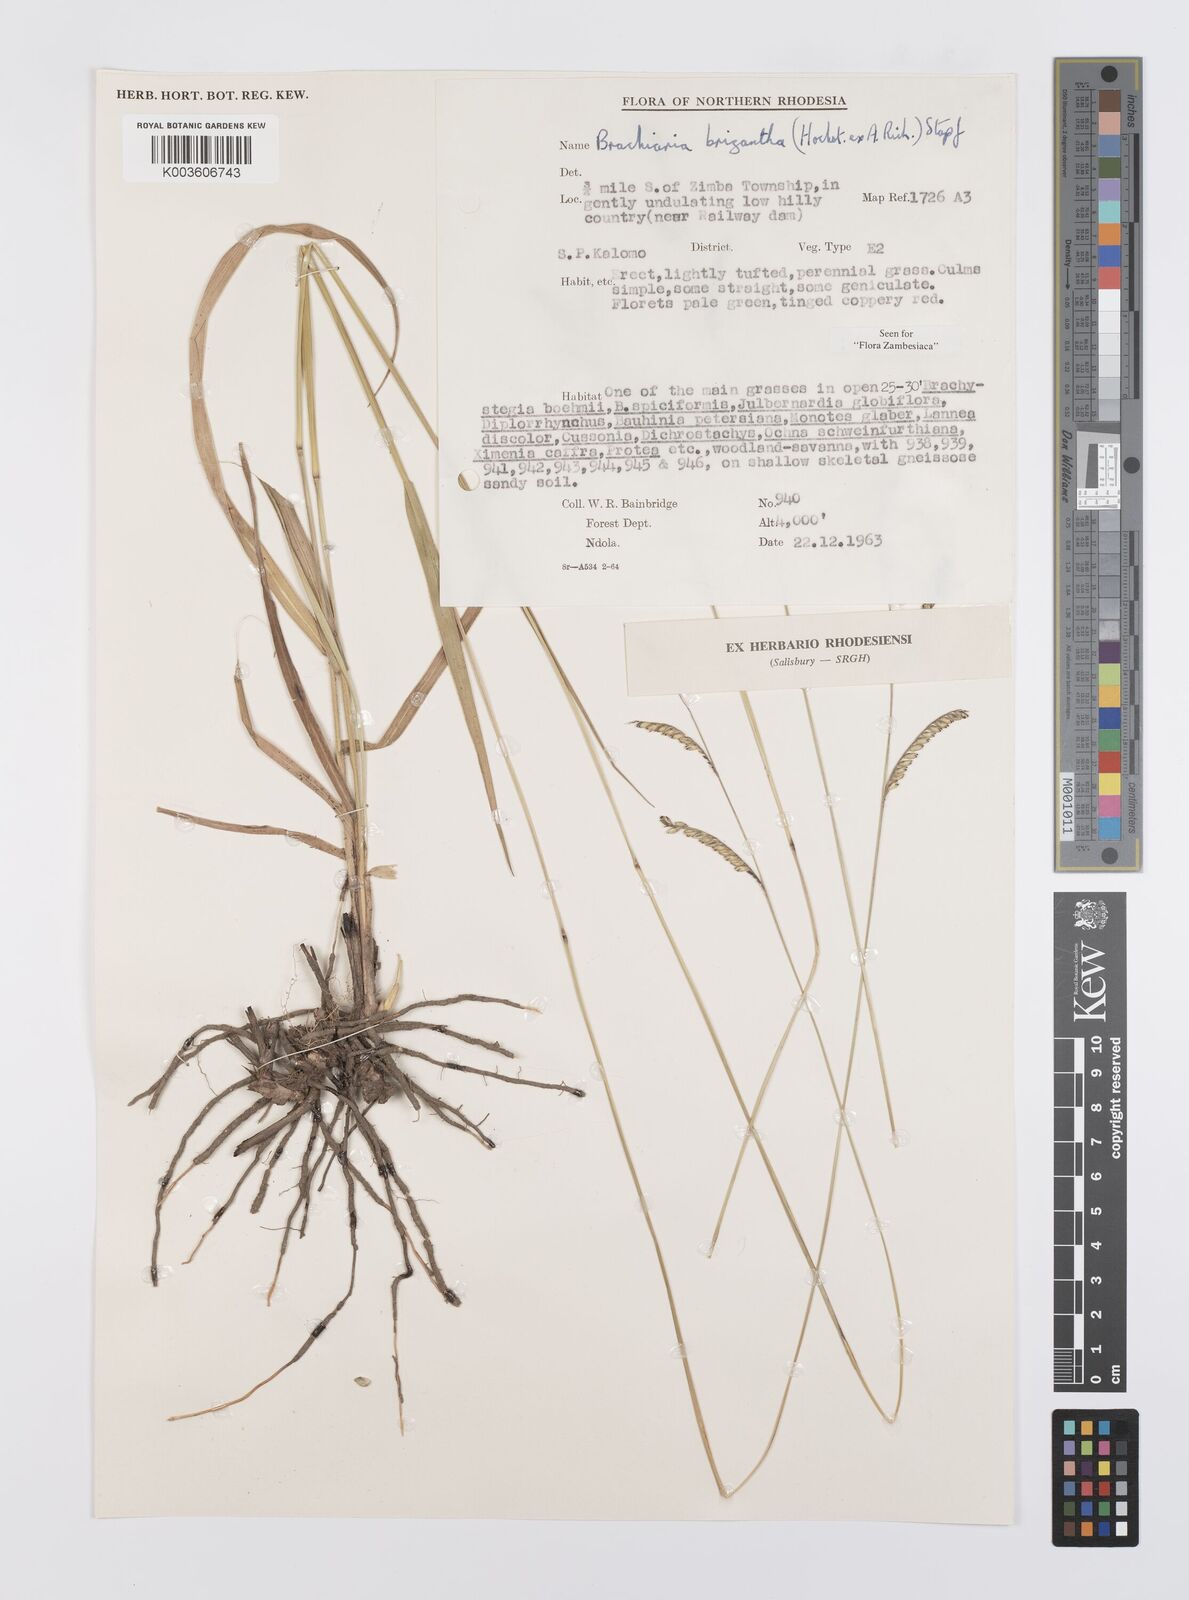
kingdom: Plantae
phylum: Tracheophyta
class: Liliopsida
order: Poales
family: Poaceae
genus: Urochloa
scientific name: Urochloa brizantha
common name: Palisade signalgrass
